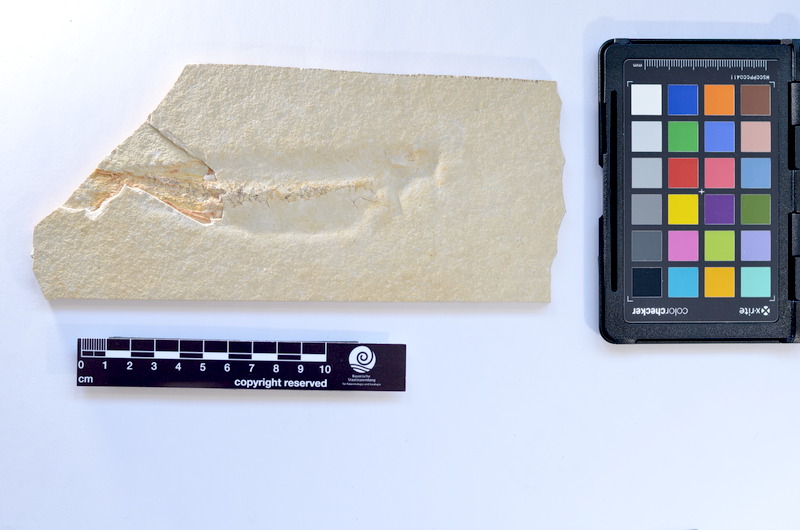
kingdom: Animalia
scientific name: Animalia
